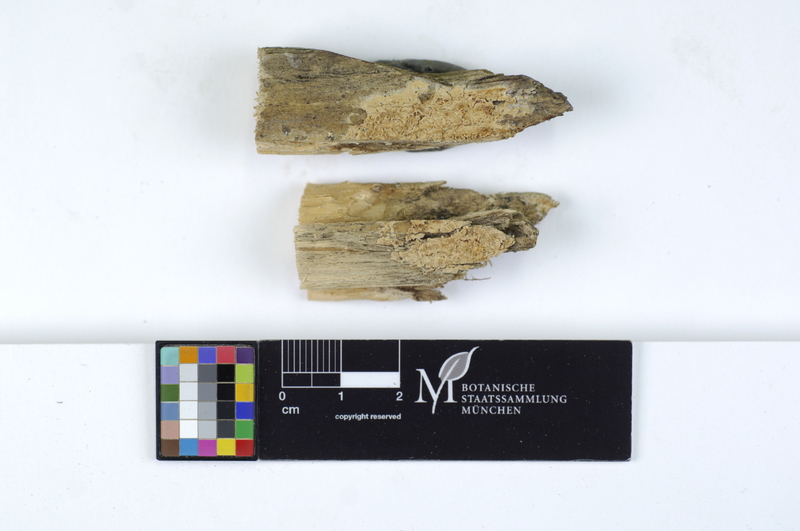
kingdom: Fungi
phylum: Basidiomycota
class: Agaricomycetes
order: Agaricales
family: Stephanosporaceae
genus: Cristinia
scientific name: Cristinia eichleri
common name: Dentists' bane
